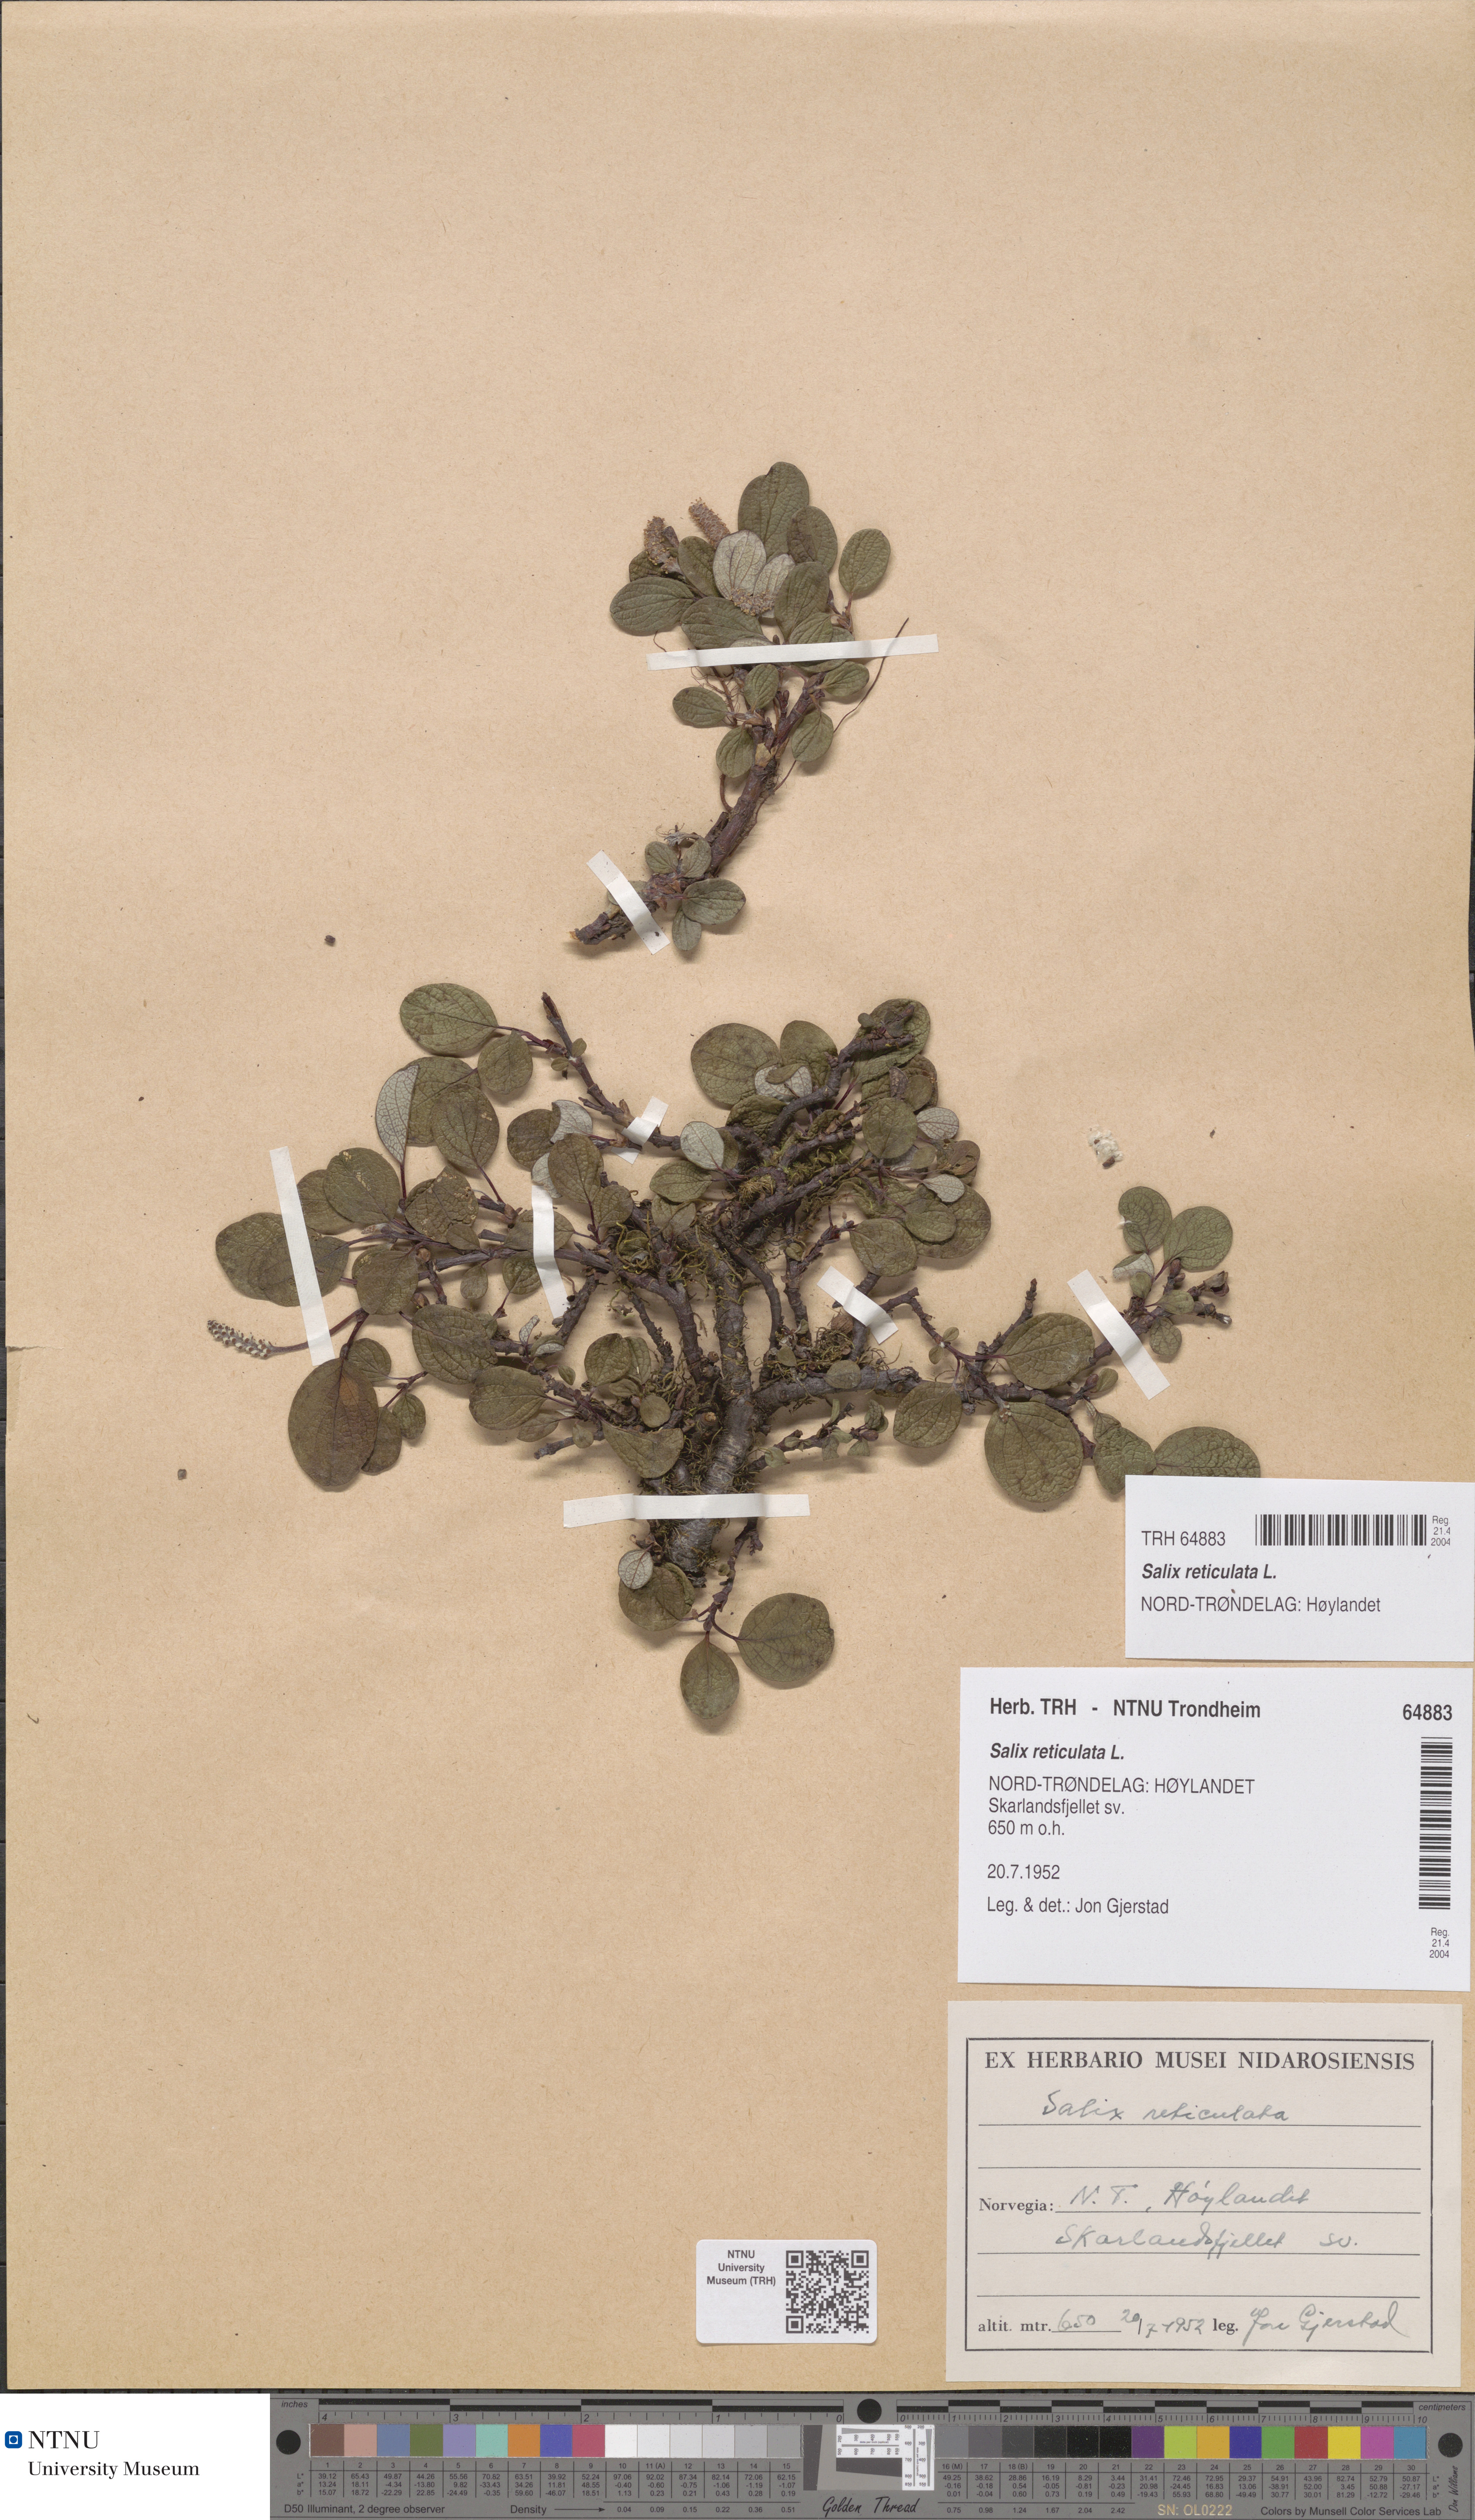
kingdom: Plantae
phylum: Tracheophyta
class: Magnoliopsida
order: Malpighiales
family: Salicaceae
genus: Salix
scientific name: Salix reticulata
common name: Net-leaved willow
